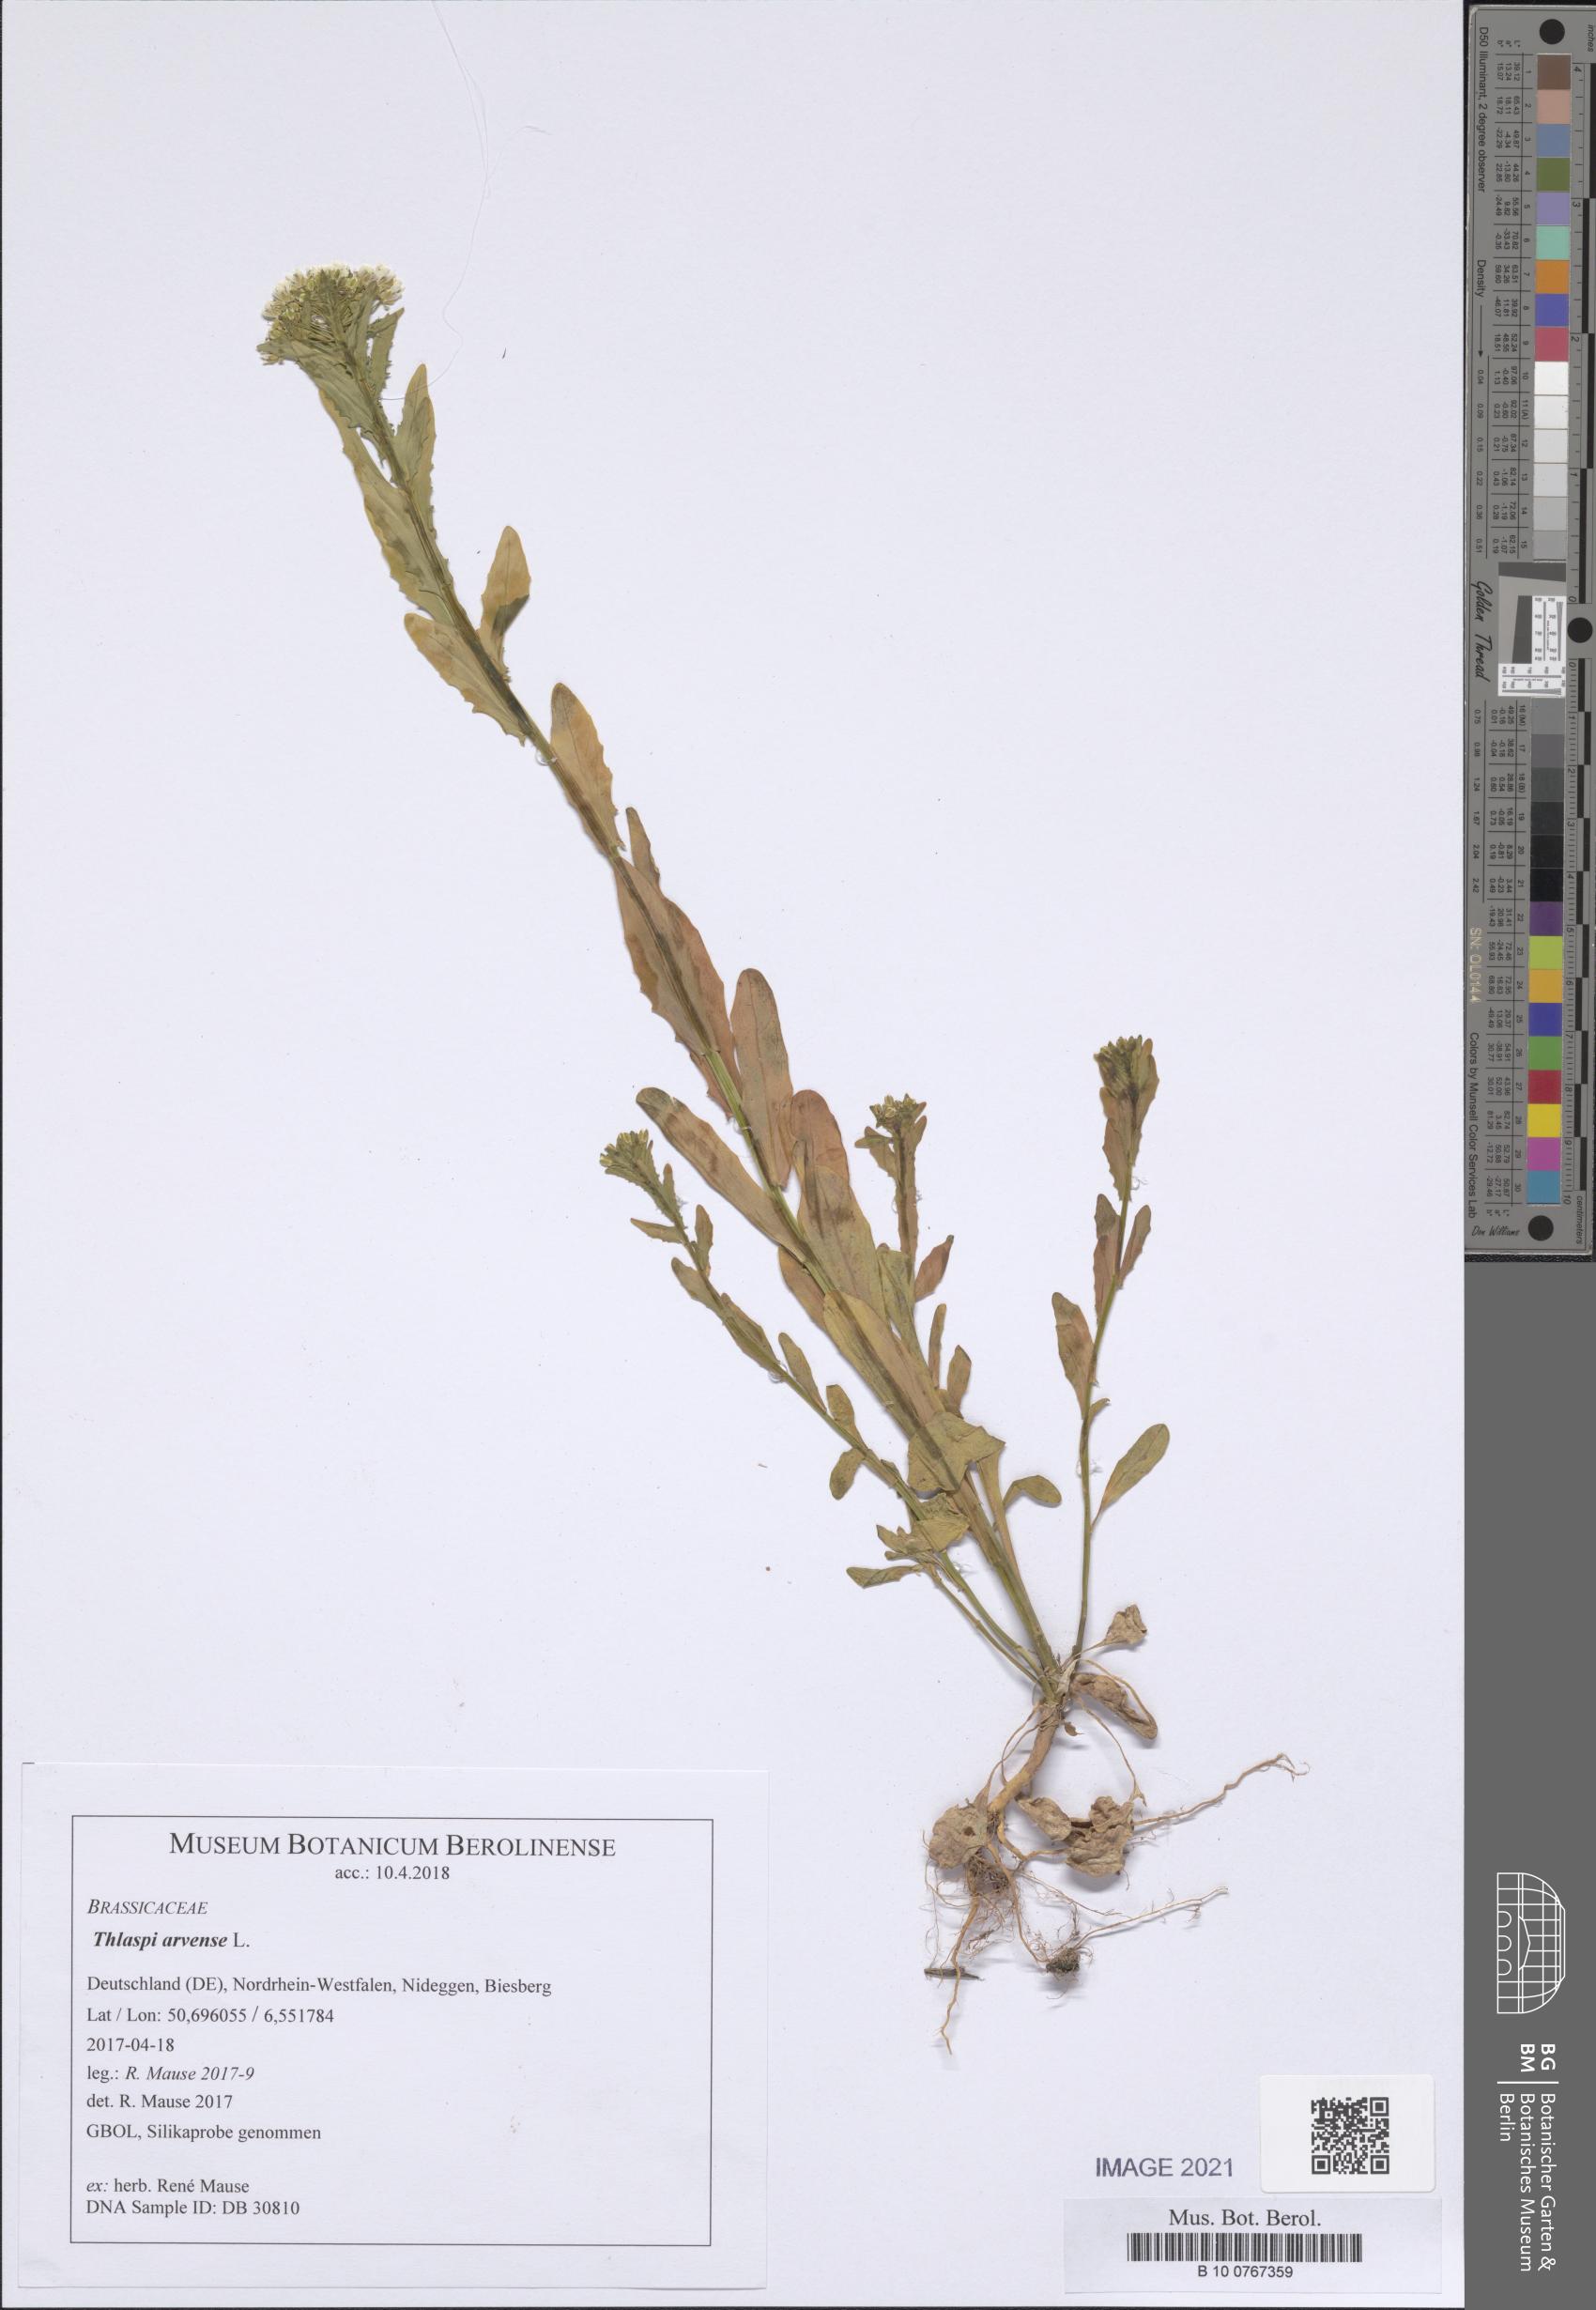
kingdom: Plantae
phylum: Tracheophyta
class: Magnoliopsida
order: Brassicales
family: Brassicaceae
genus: Thlaspi
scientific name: Thlaspi arvense
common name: Field pennycress
